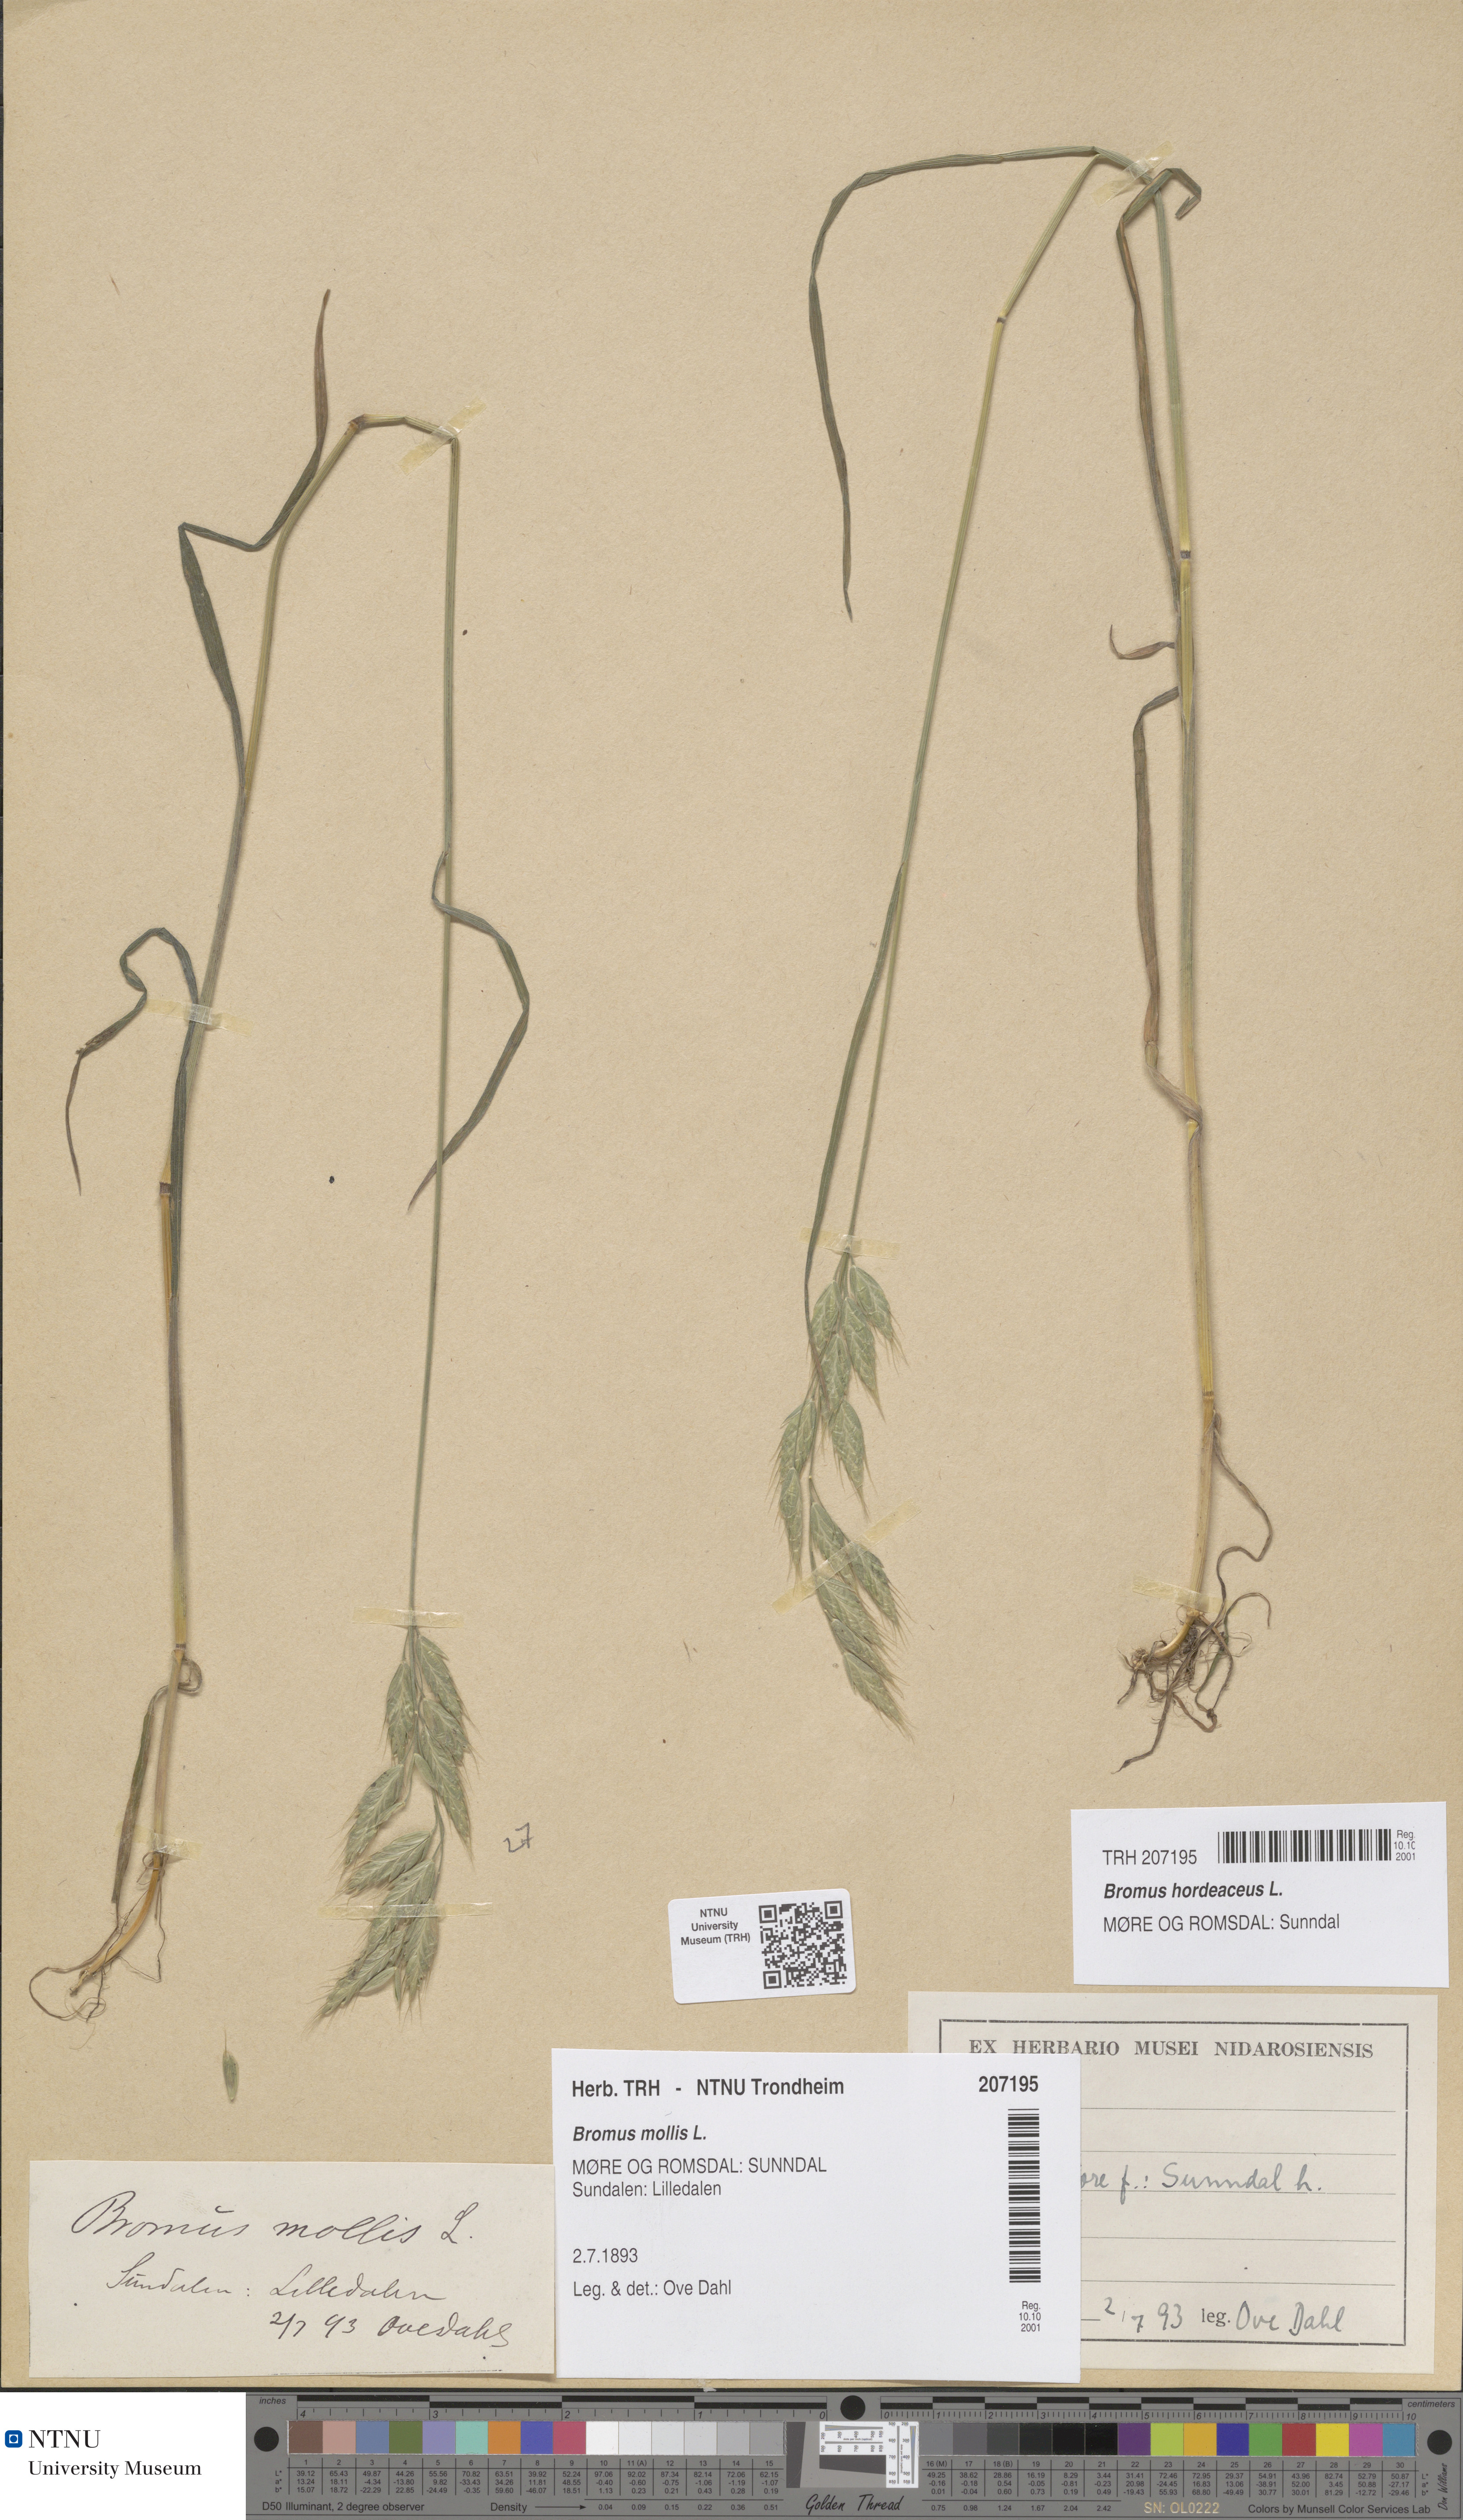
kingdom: Plantae
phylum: Tracheophyta
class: Liliopsida
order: Poales
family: Poaceae
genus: Bromus
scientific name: Bromus hordeaceus
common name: Soft brome
